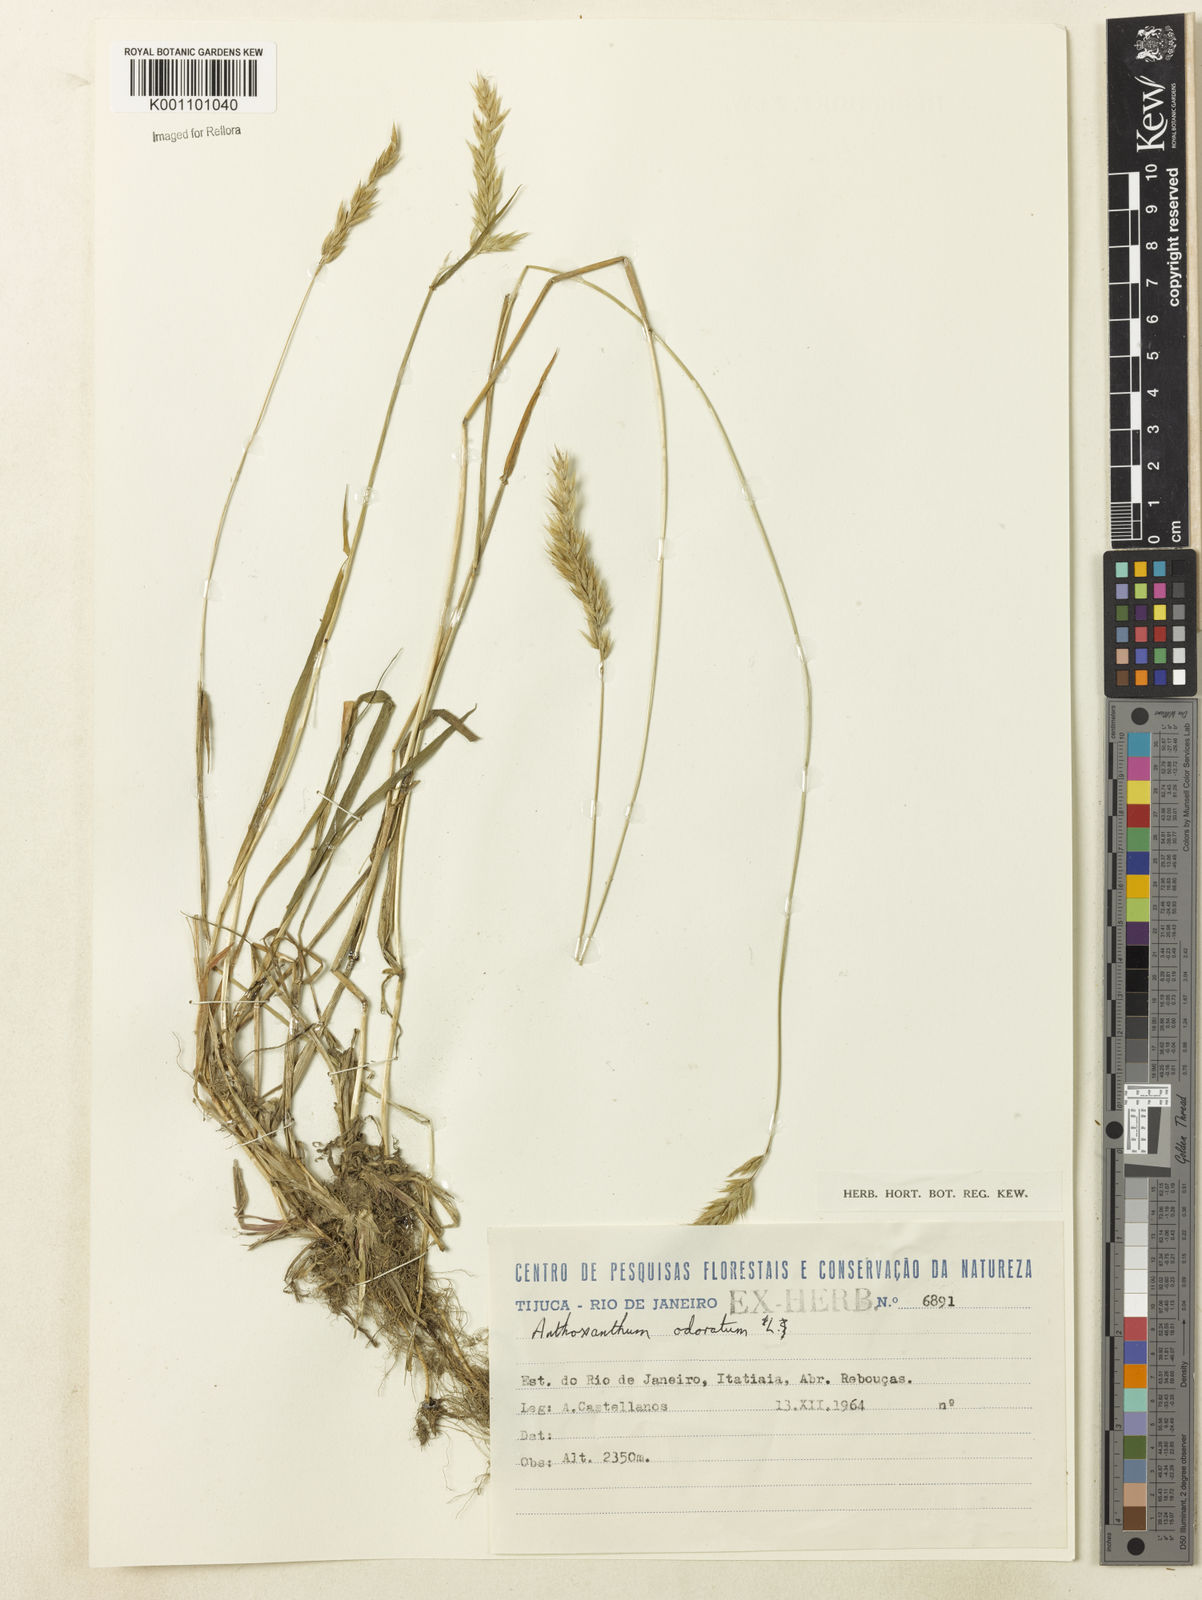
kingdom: Plantae
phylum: Tracheophyta
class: Liliopsida
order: Poales
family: Poaceae
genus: Anthoxanthum
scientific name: Anthoxanthum odoratum
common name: Sweet vernalgrass
